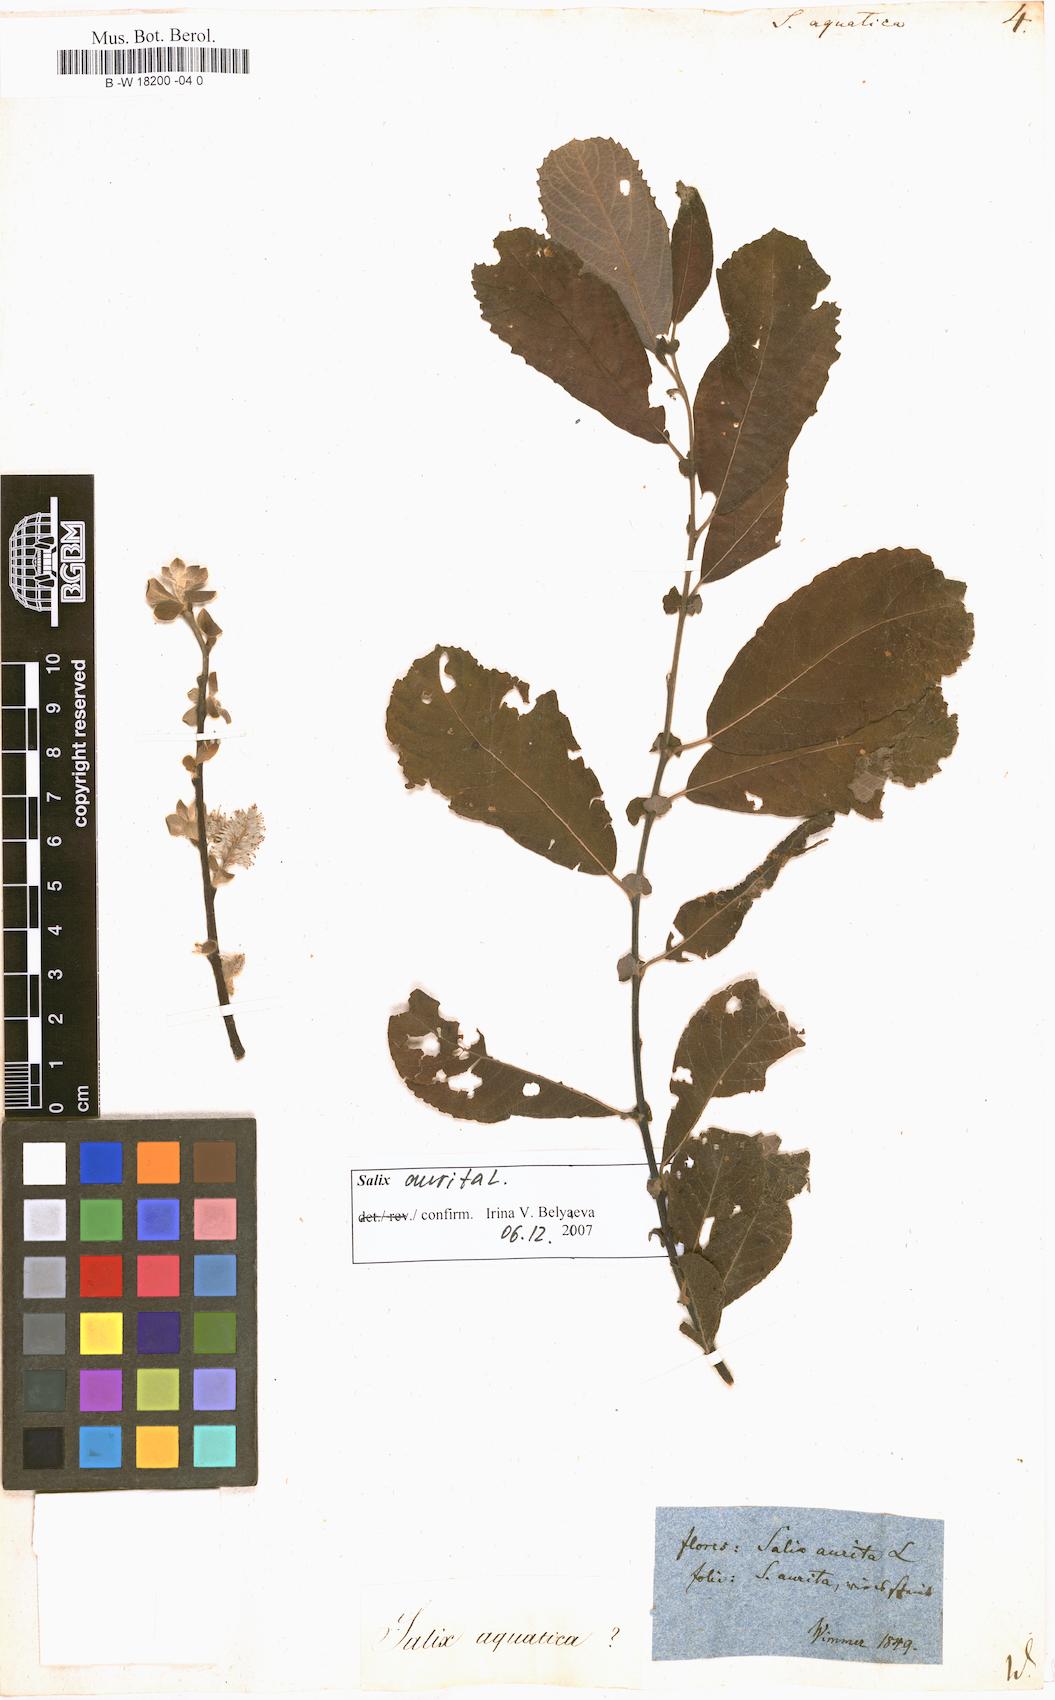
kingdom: Plantae
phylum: Tracheophyta
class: Magnoliopsida
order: Malpighiales
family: Salicaceae
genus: Salix
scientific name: Salix
